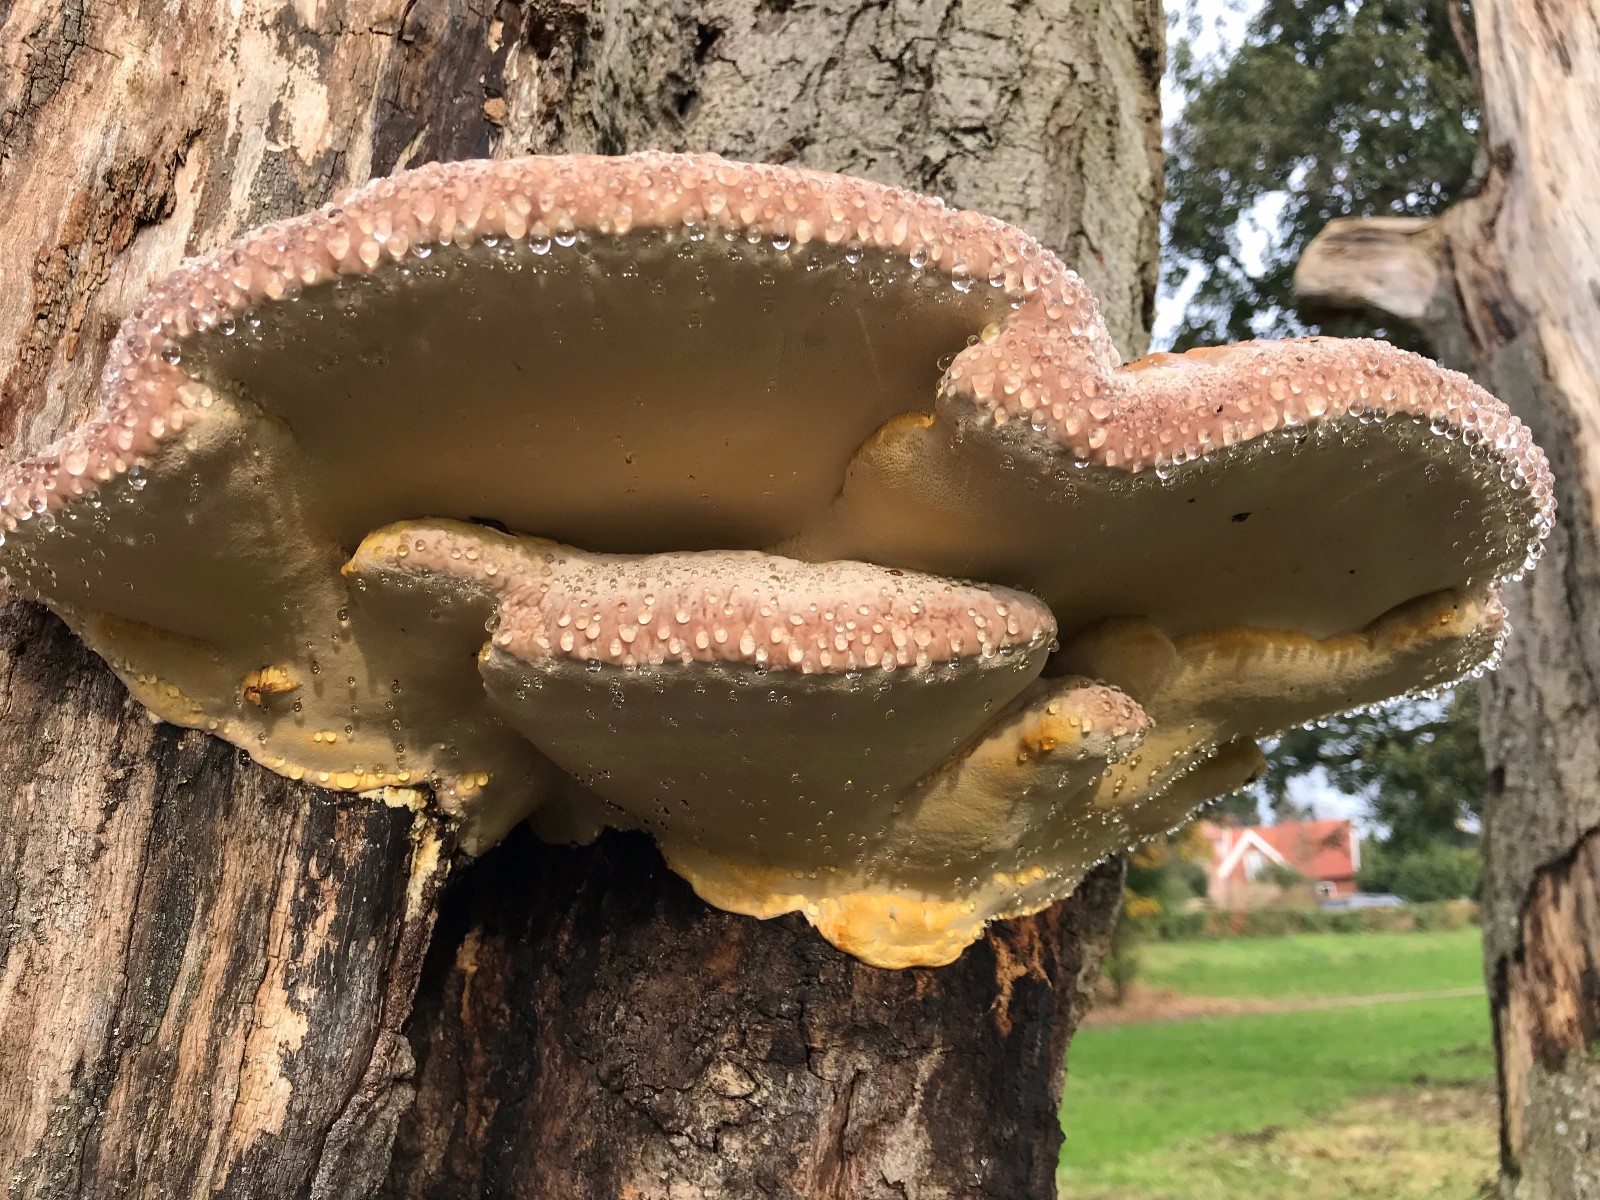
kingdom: Fungi
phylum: Basidiomycota
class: Agaricomycetes
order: Polyporales
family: Fomitopsidaceae
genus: Fomitopsis
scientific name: Fomitopsis pinicola
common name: randbæltet hovporesvamp
